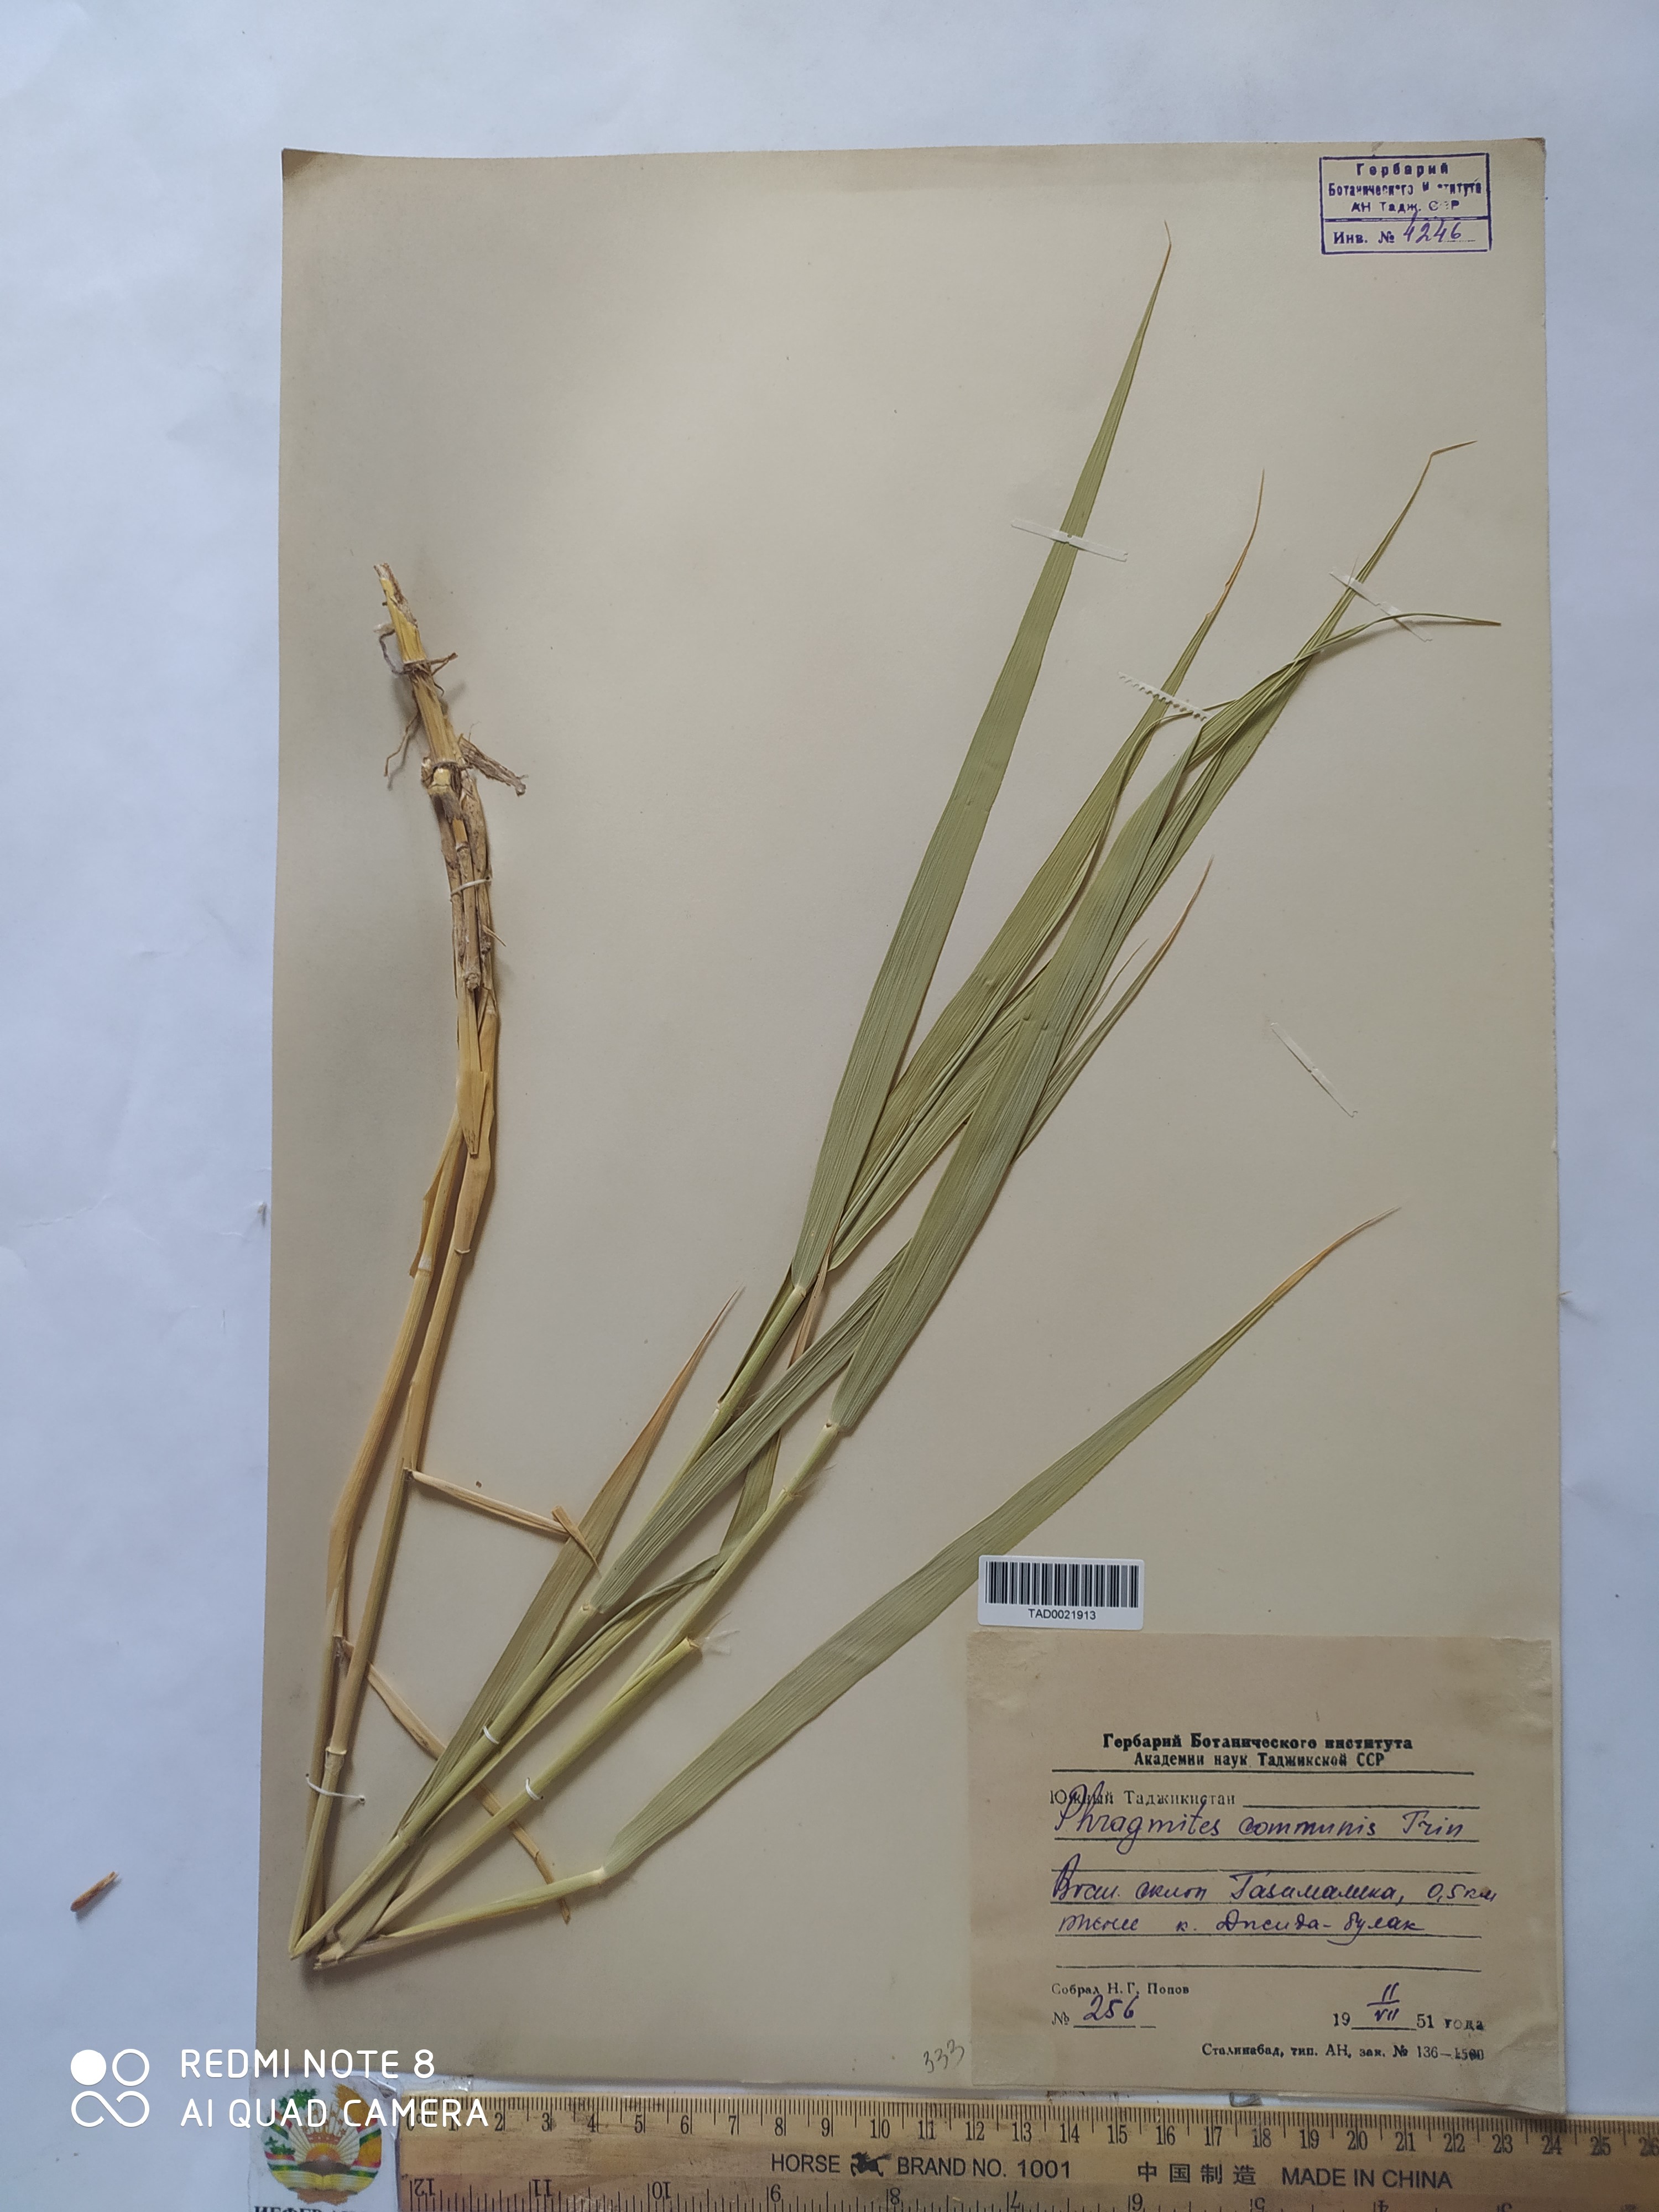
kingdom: Plantae
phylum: Tracheophyta
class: Liliopsida
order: Poales
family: Poaceae
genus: Phragmites
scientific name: Phragmites australis
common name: Common reed
